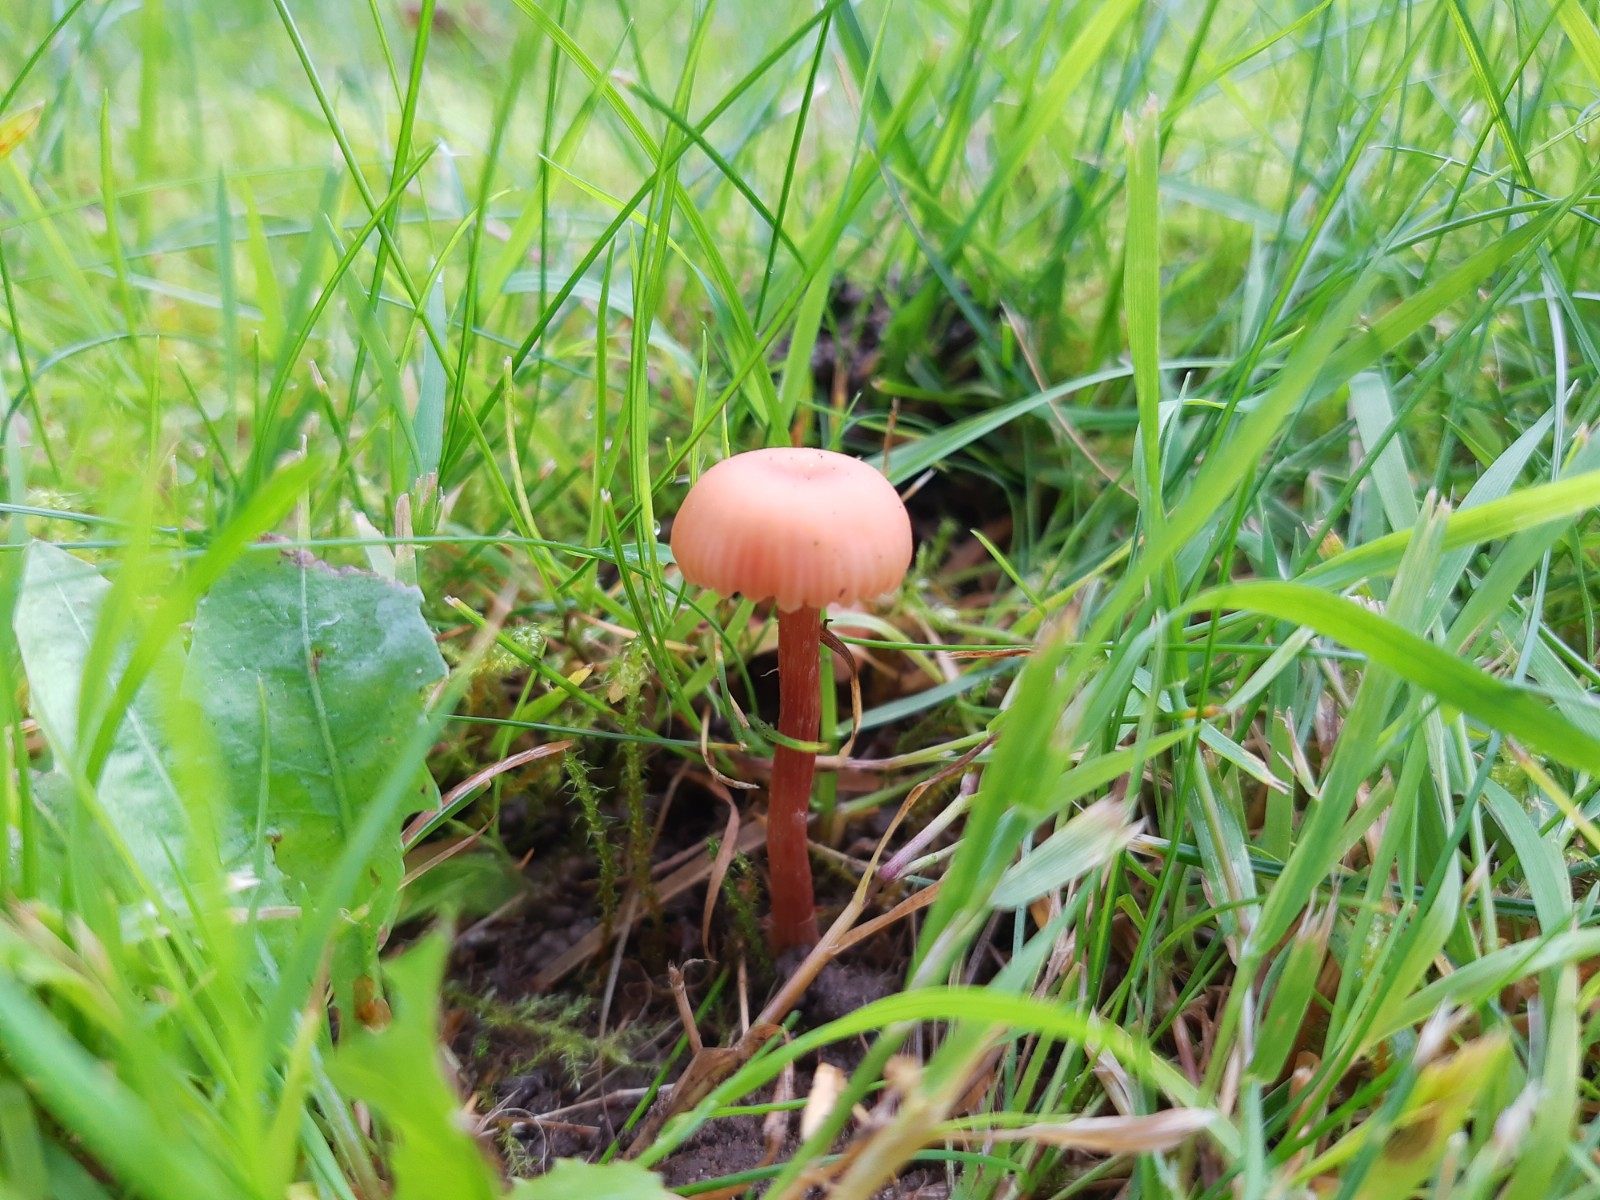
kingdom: Fungi
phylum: Basidiomycota
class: Agaricomycetes
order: Agaricales
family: Hydnangiaceae
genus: Laccaria
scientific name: Laccaria laccata
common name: rød ametysthat
